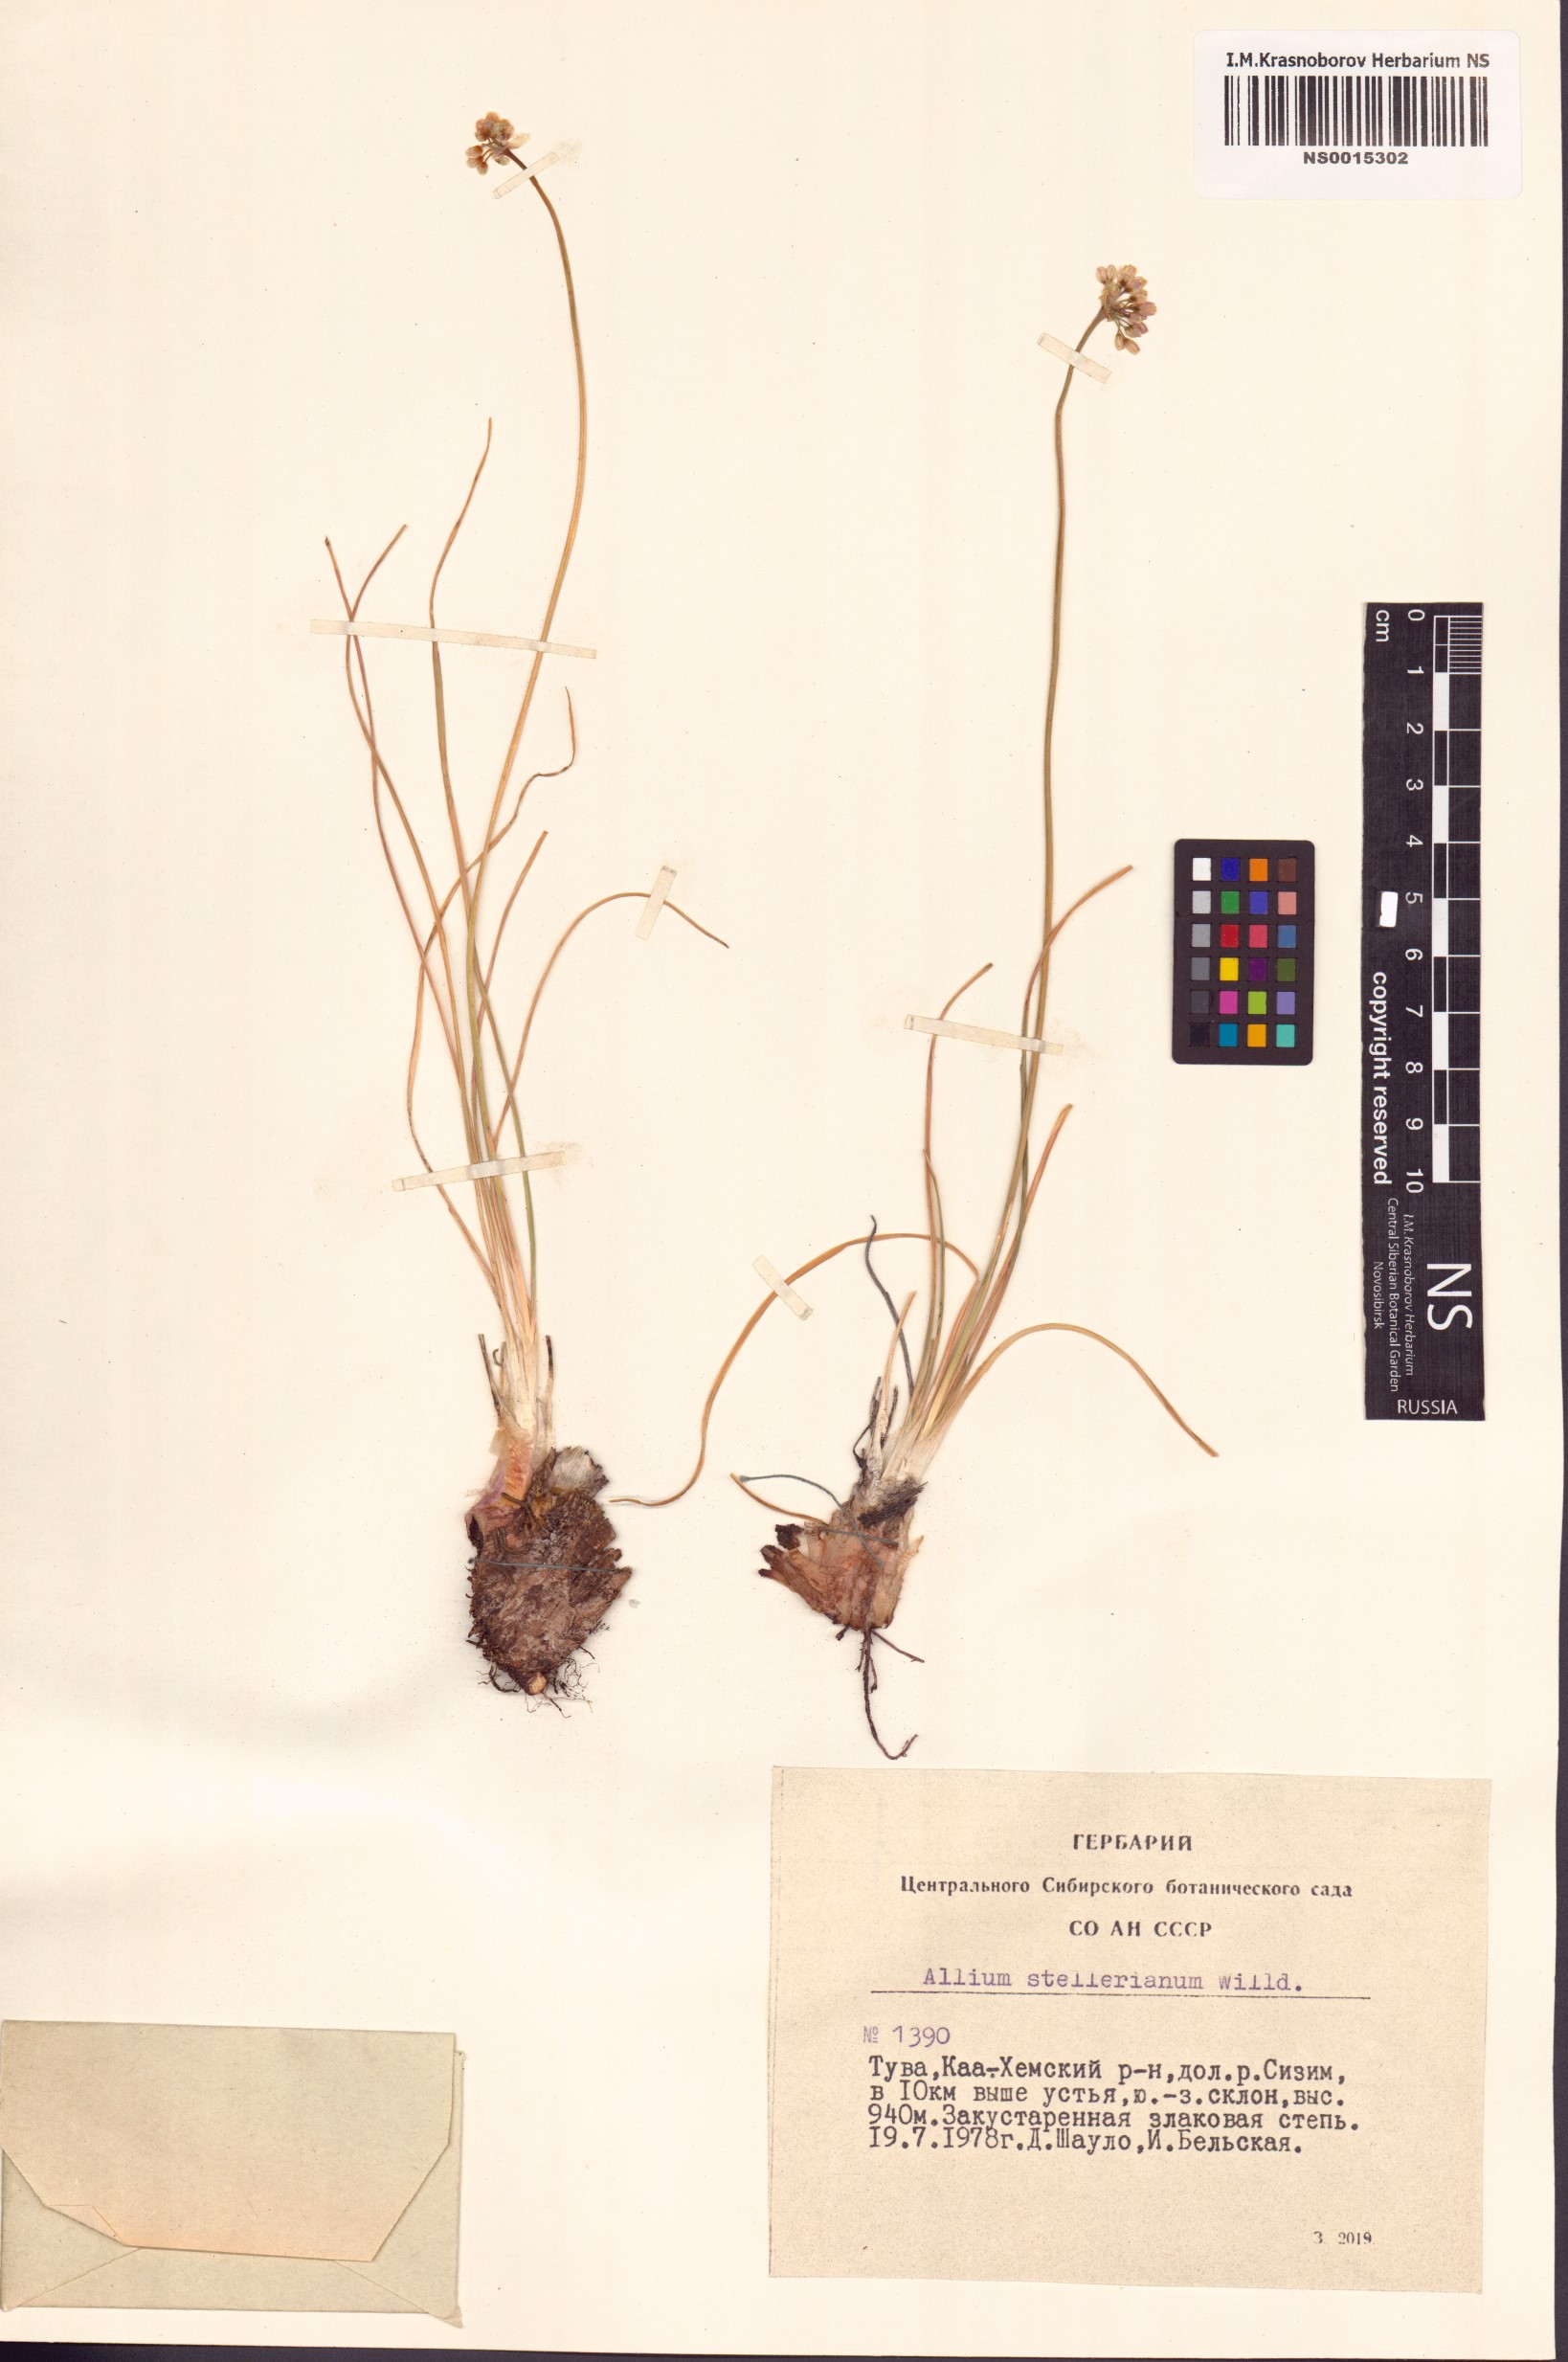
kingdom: Plantae
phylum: Tracheophyta
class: Liliopsida
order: Asparagales
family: Amaryllidaceae
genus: Allium
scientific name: Allium stellerianum
